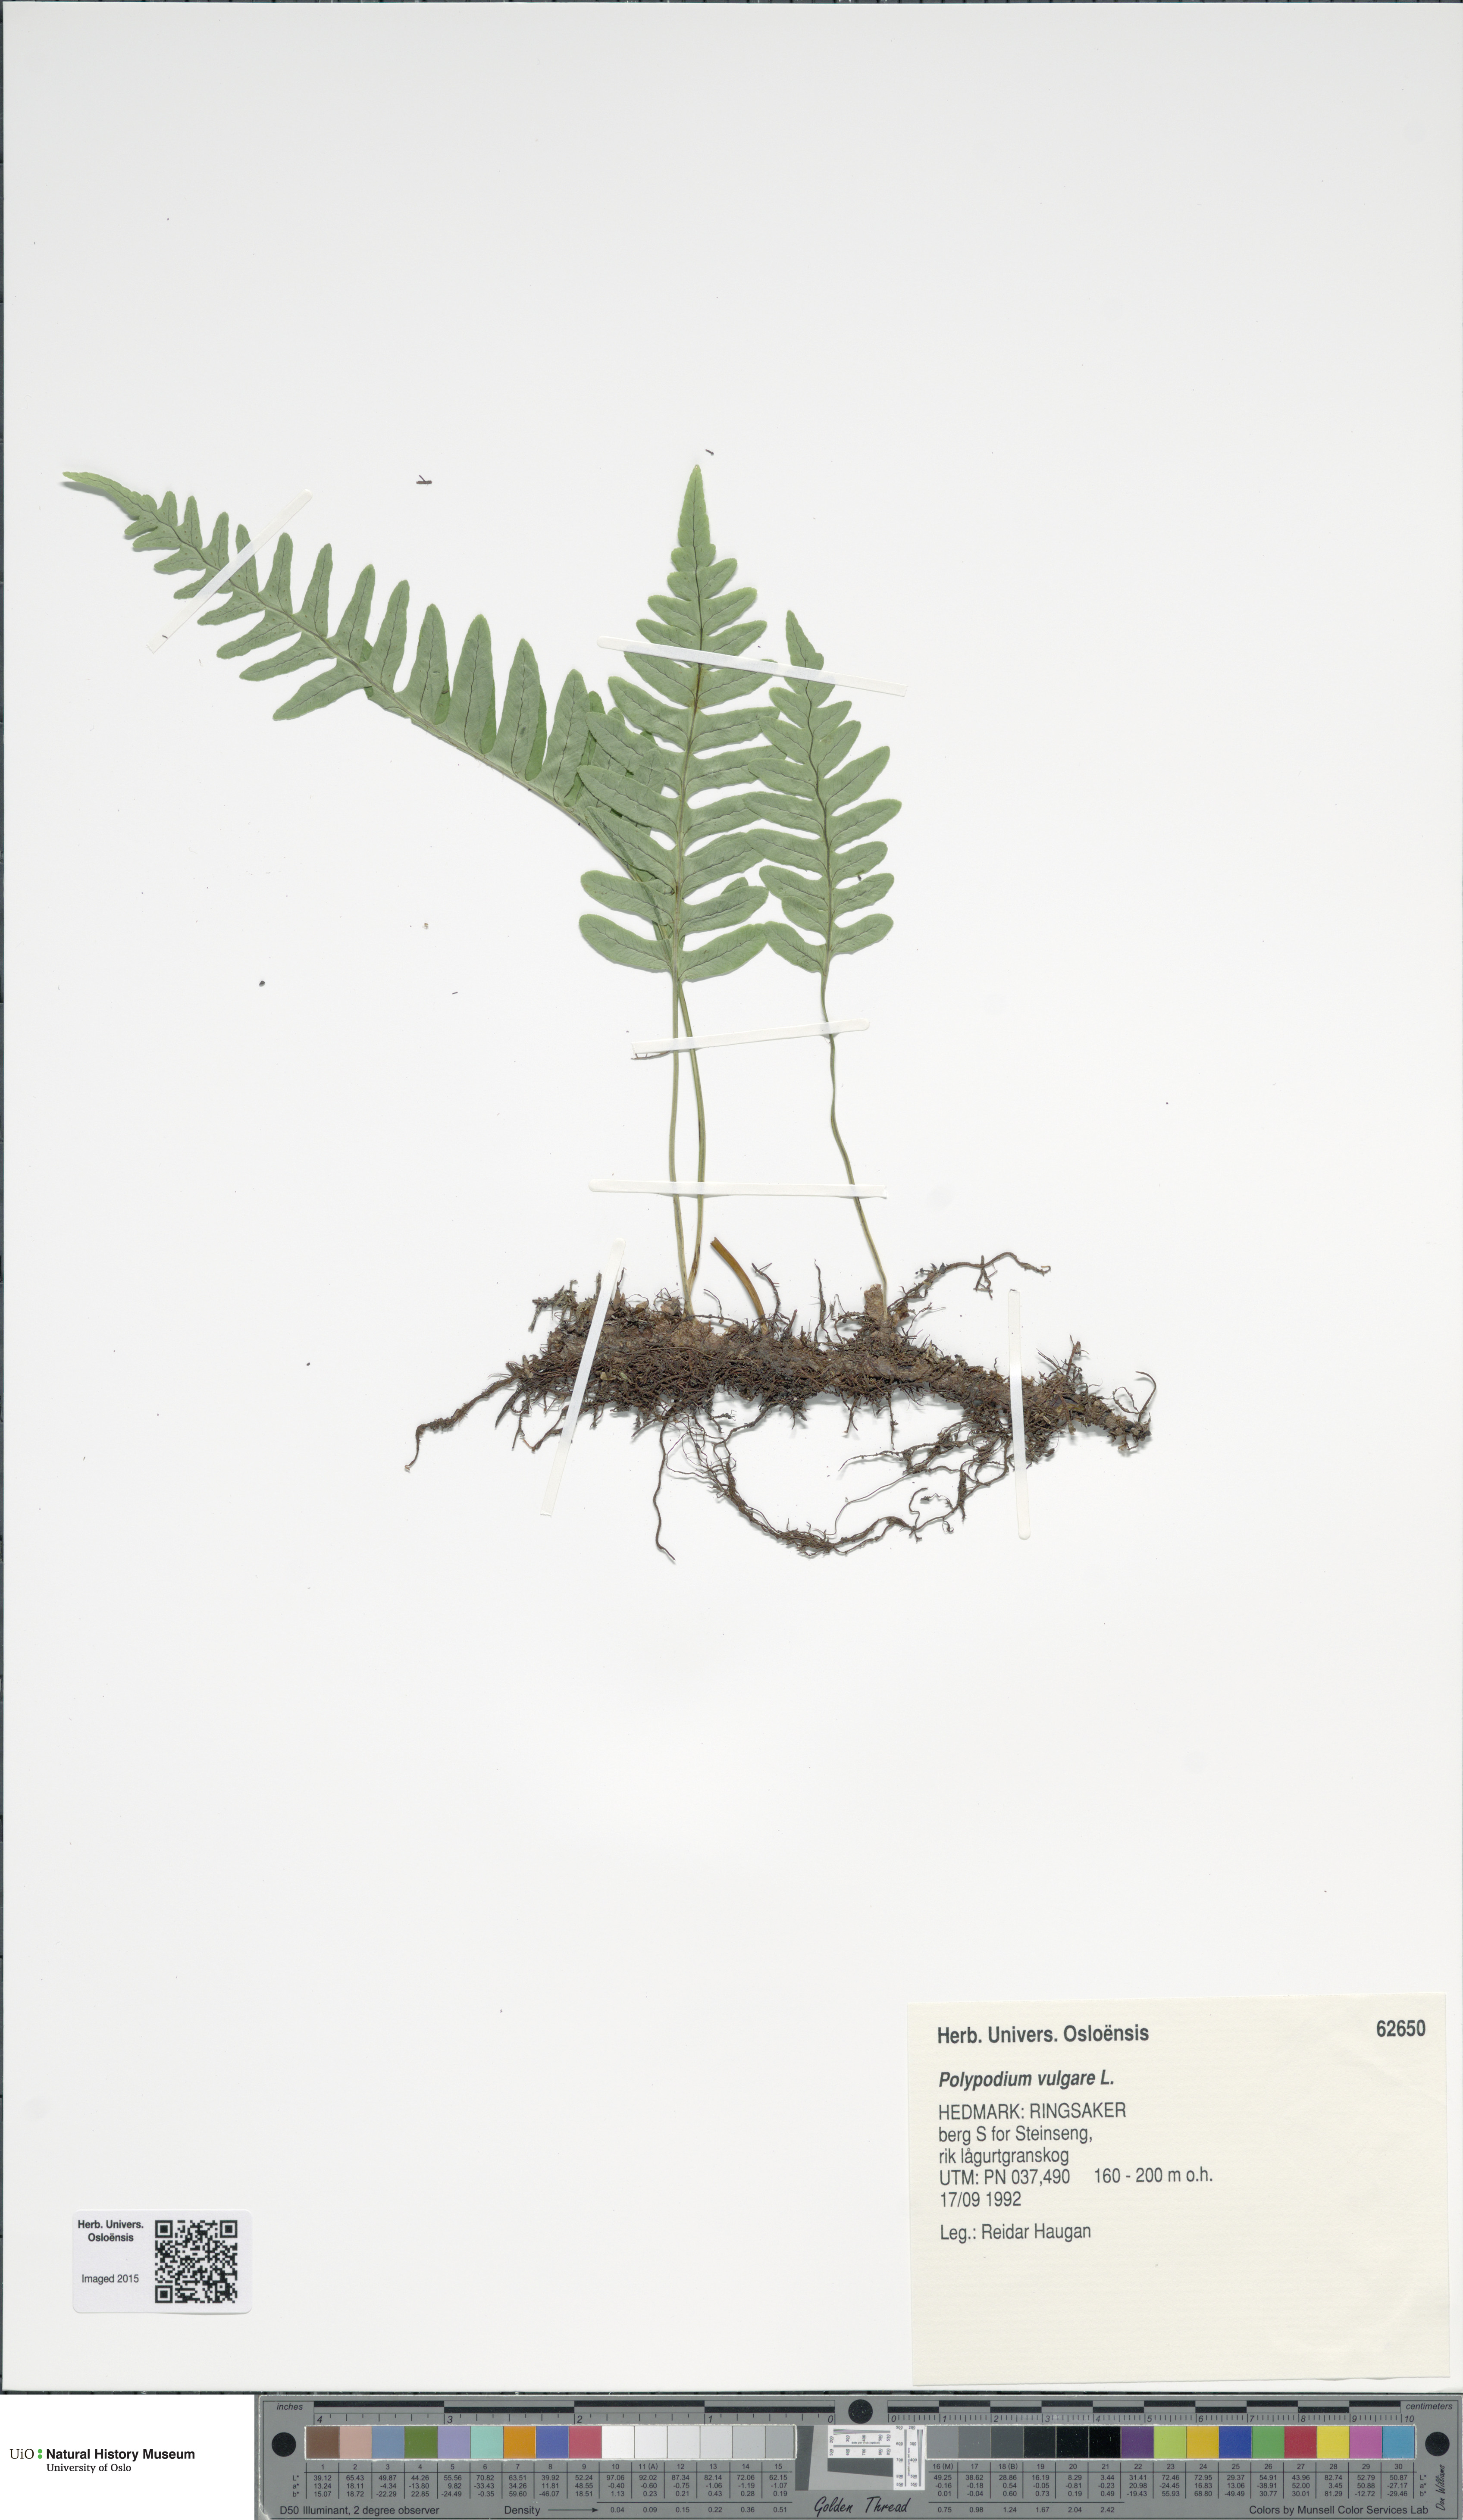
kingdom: Plantae
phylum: Tracheophyta
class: Polypodiopsida
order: Polypodiales
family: Polypodiaceae
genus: Polypodium
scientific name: Polypodium vulgare
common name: Common polypody
